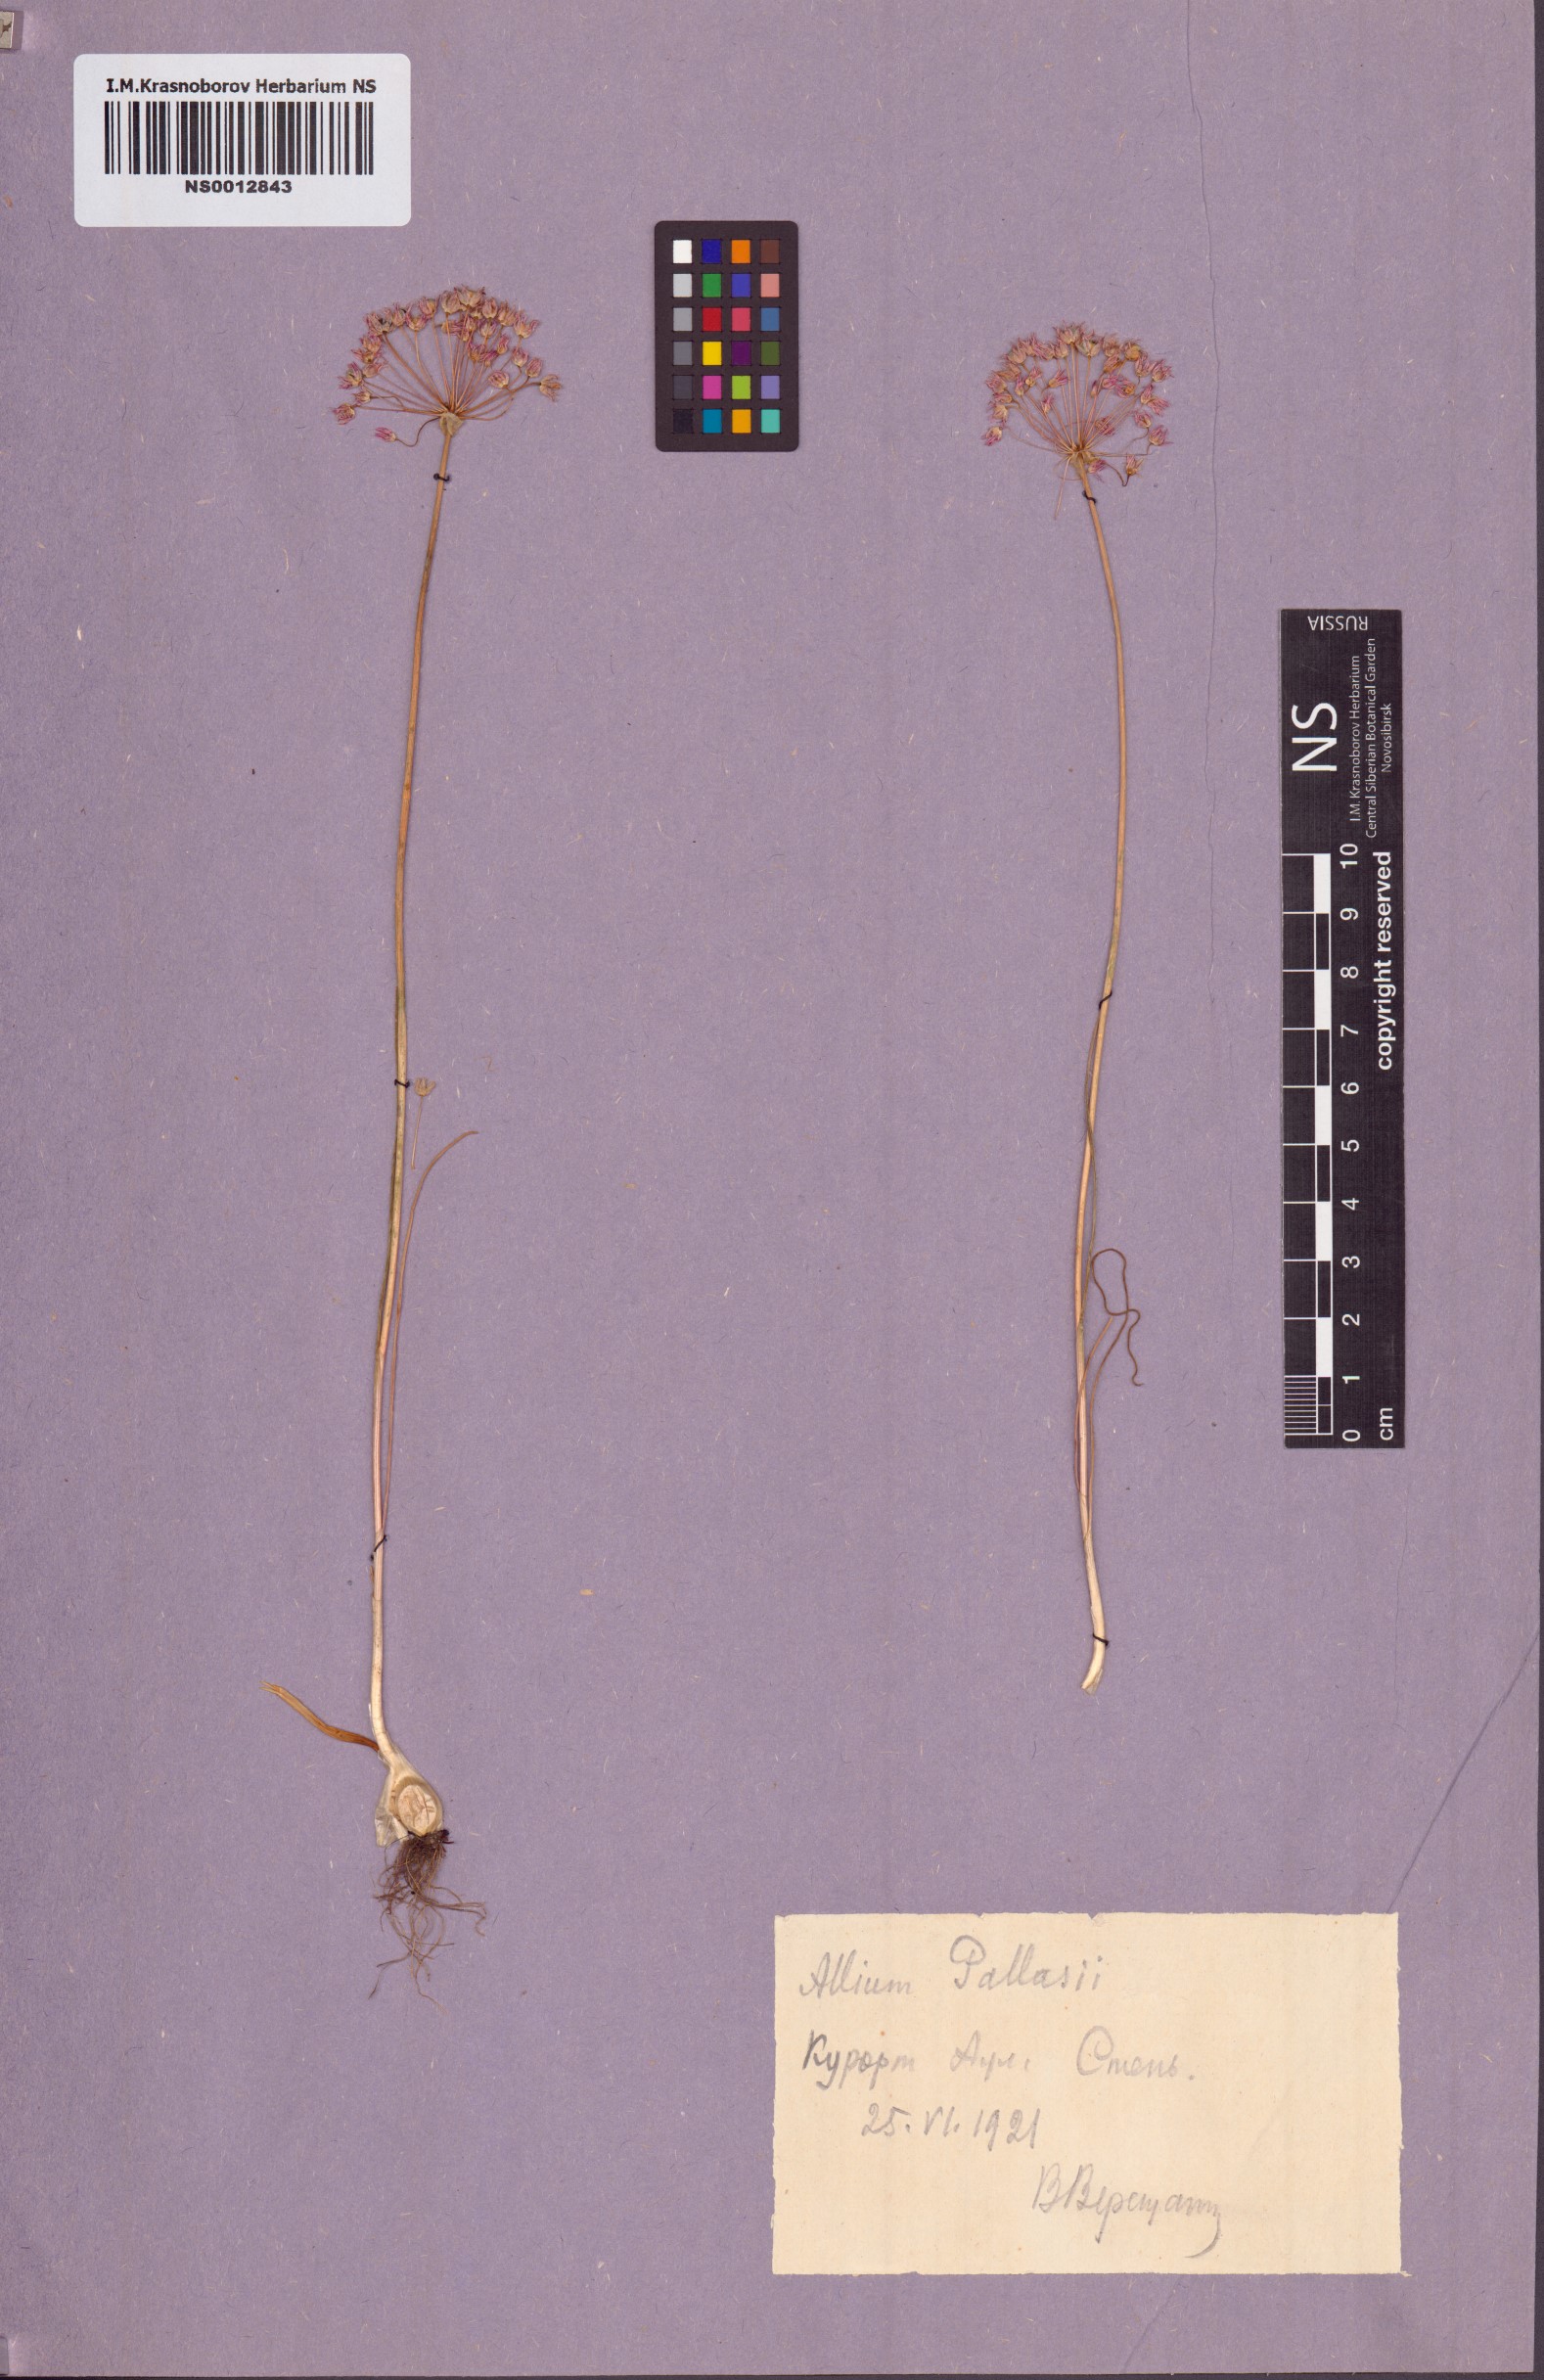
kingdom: Plantae
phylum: Tracheophyta
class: Liliopsida
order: Asparagales
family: Amaryllidaceae
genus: Allium
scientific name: Allium pallasii
